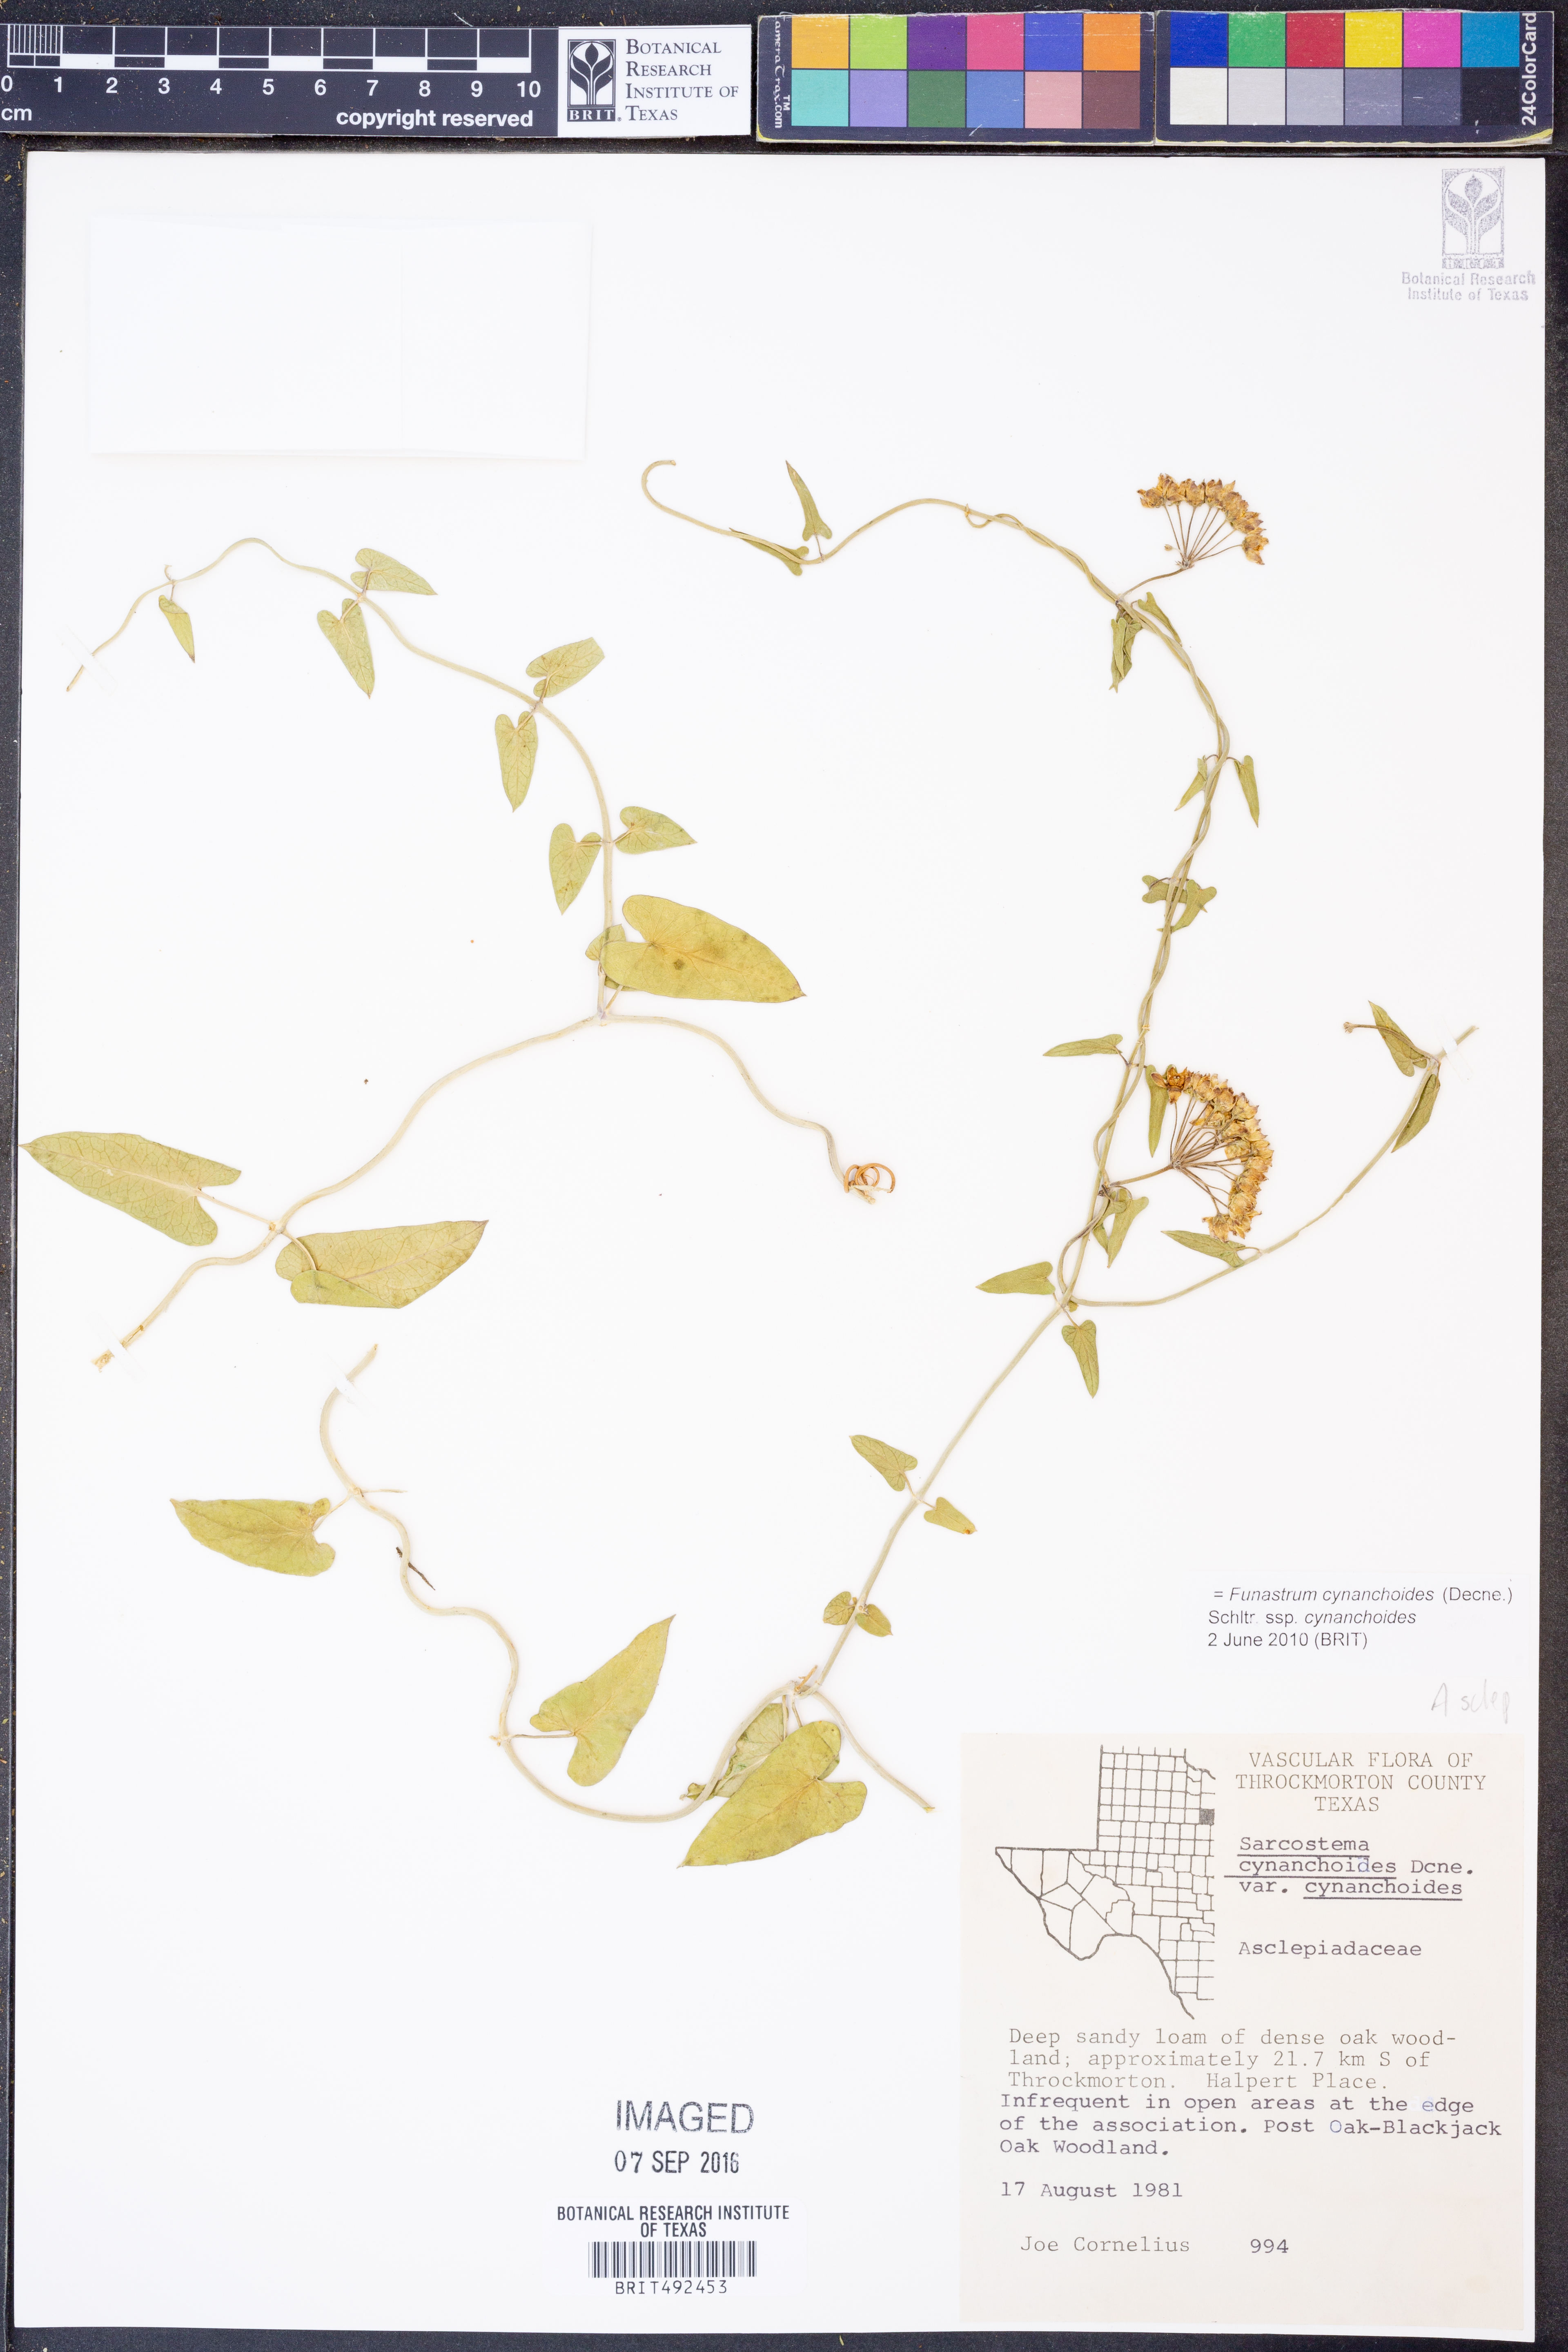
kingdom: Plantae
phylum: Tracheophyta
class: Magnoliopsida
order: Gentianales
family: Apocynaceae
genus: Funastrum
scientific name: Funastrum cynanchoides
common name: Climbing-milkweed
